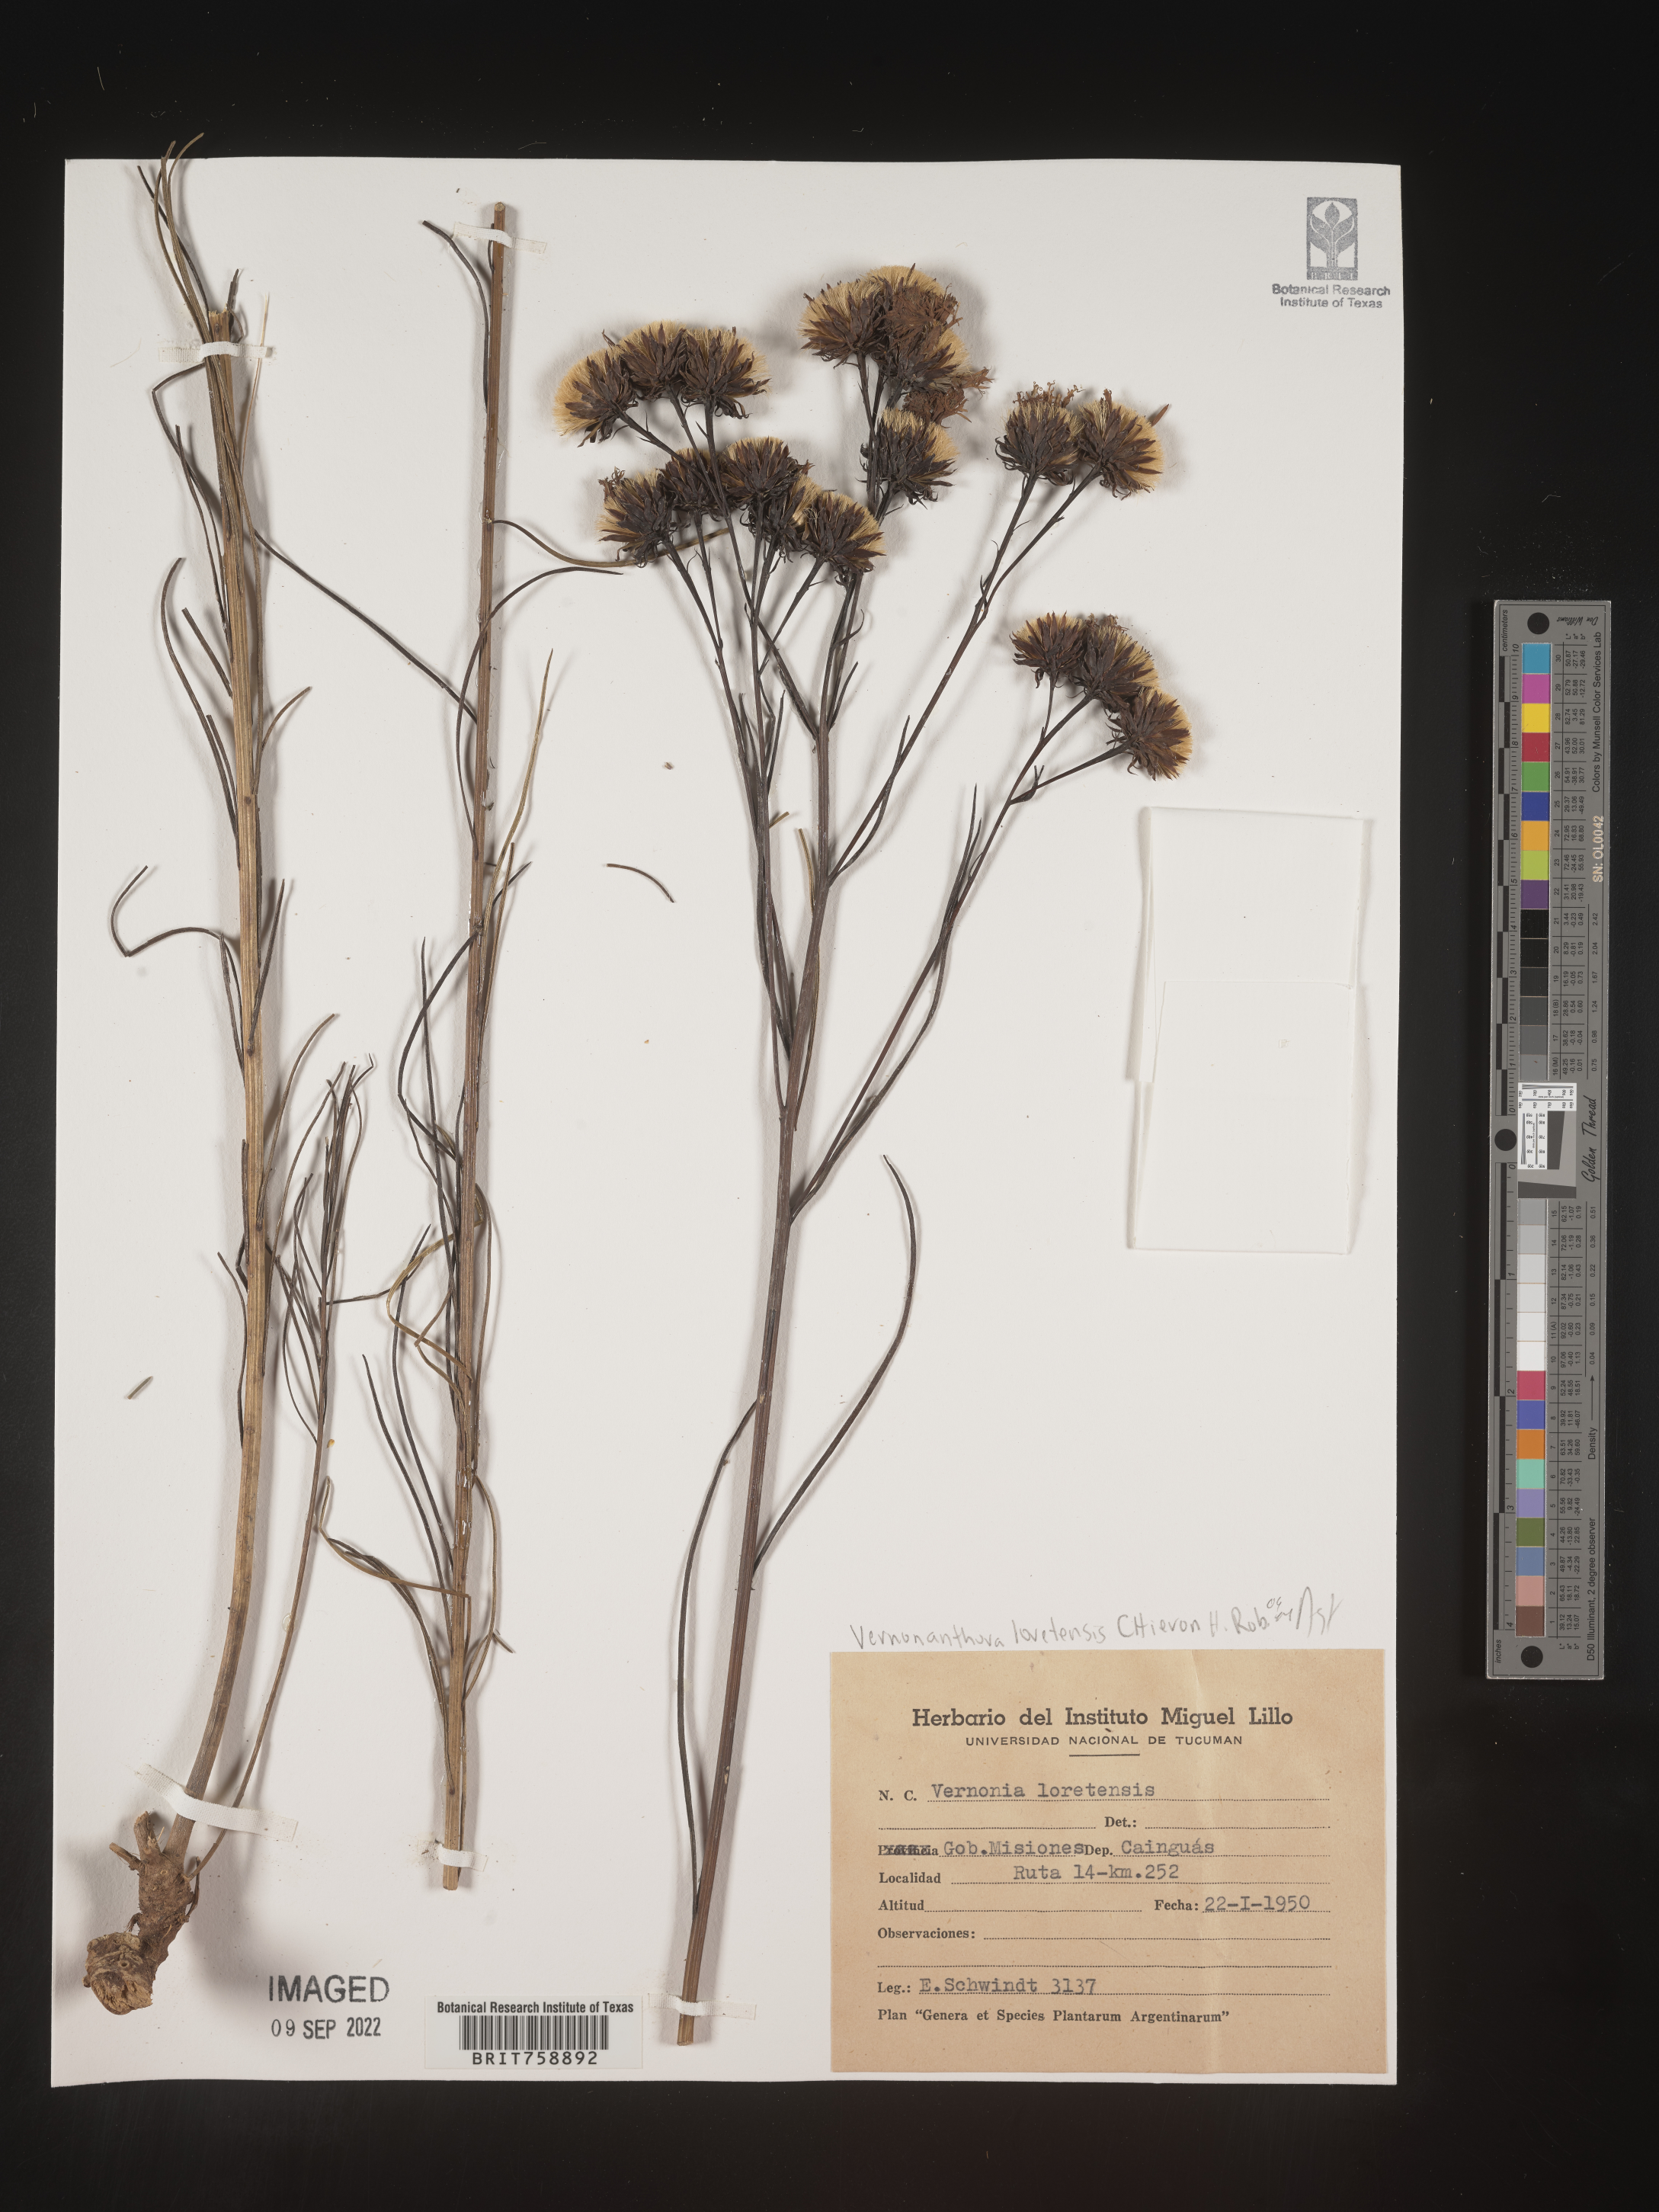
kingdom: Plantae
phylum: Tracheophyta
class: Magnoliopsida
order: Asterales
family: Asteraceae
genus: Vernonia
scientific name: Vernonia
